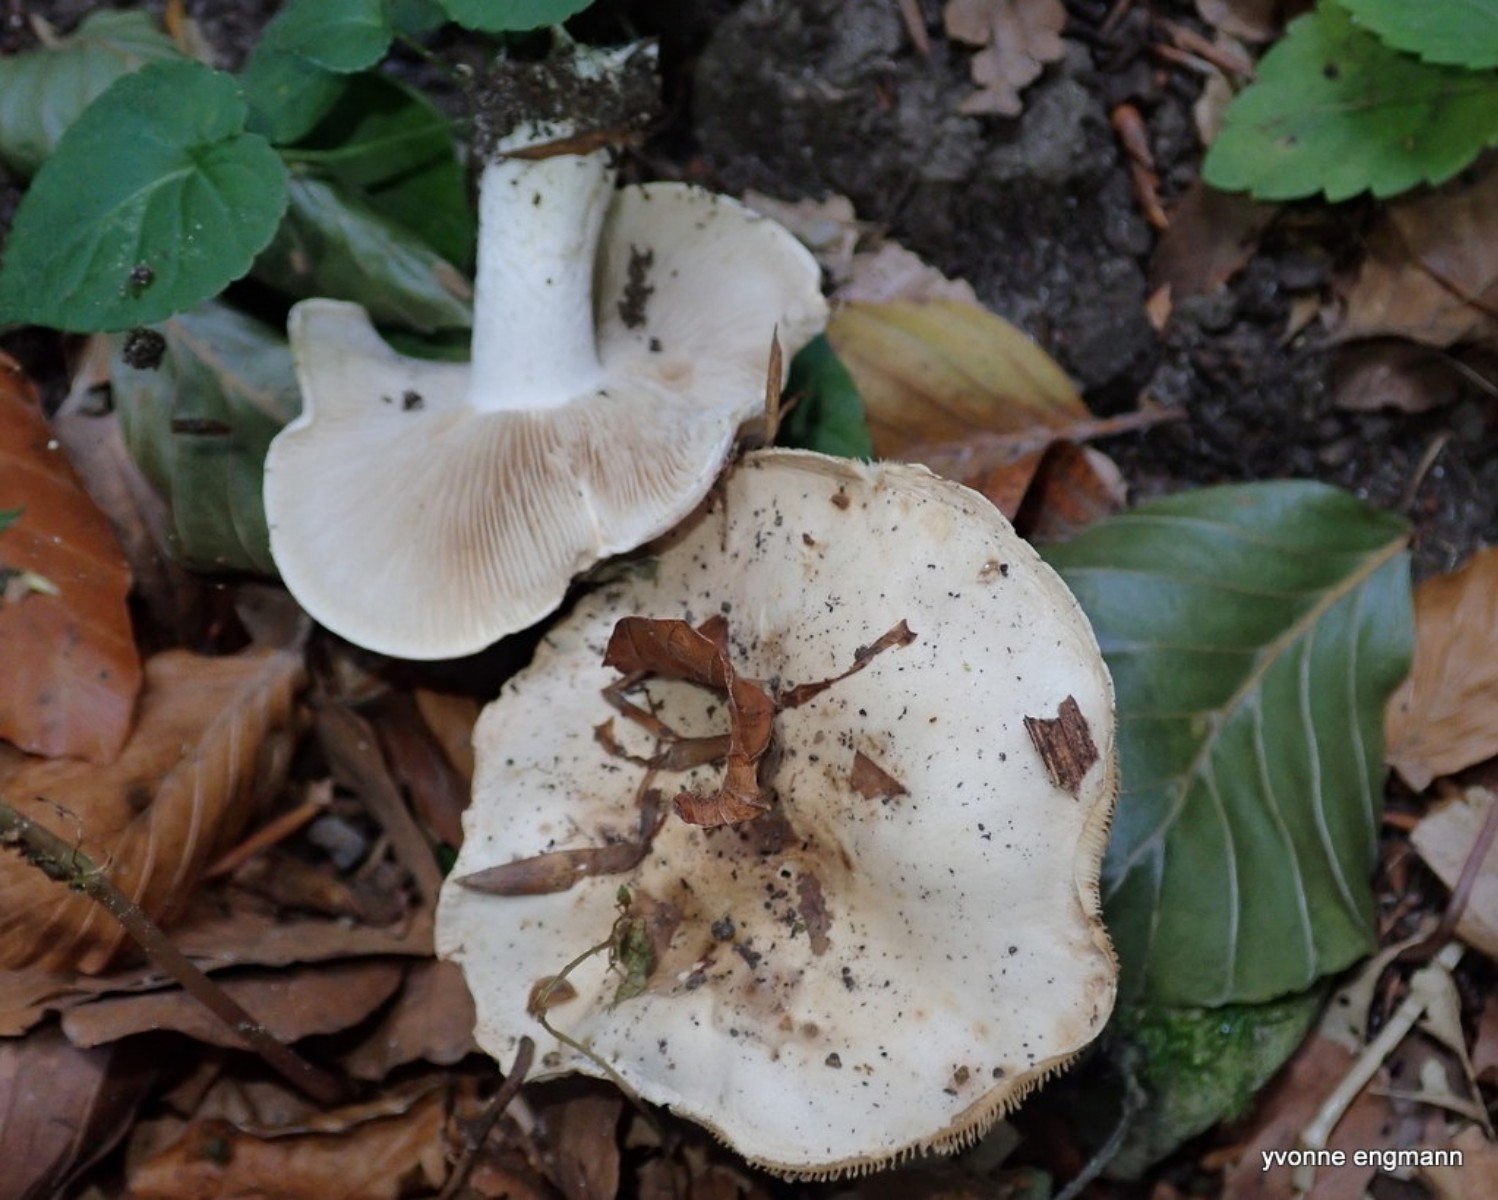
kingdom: Fungi
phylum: Basidiomycota
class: Agaricomycetes
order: Agaricales
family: Hymenogastraceae
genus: Hebeloma
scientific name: Hebeloma
